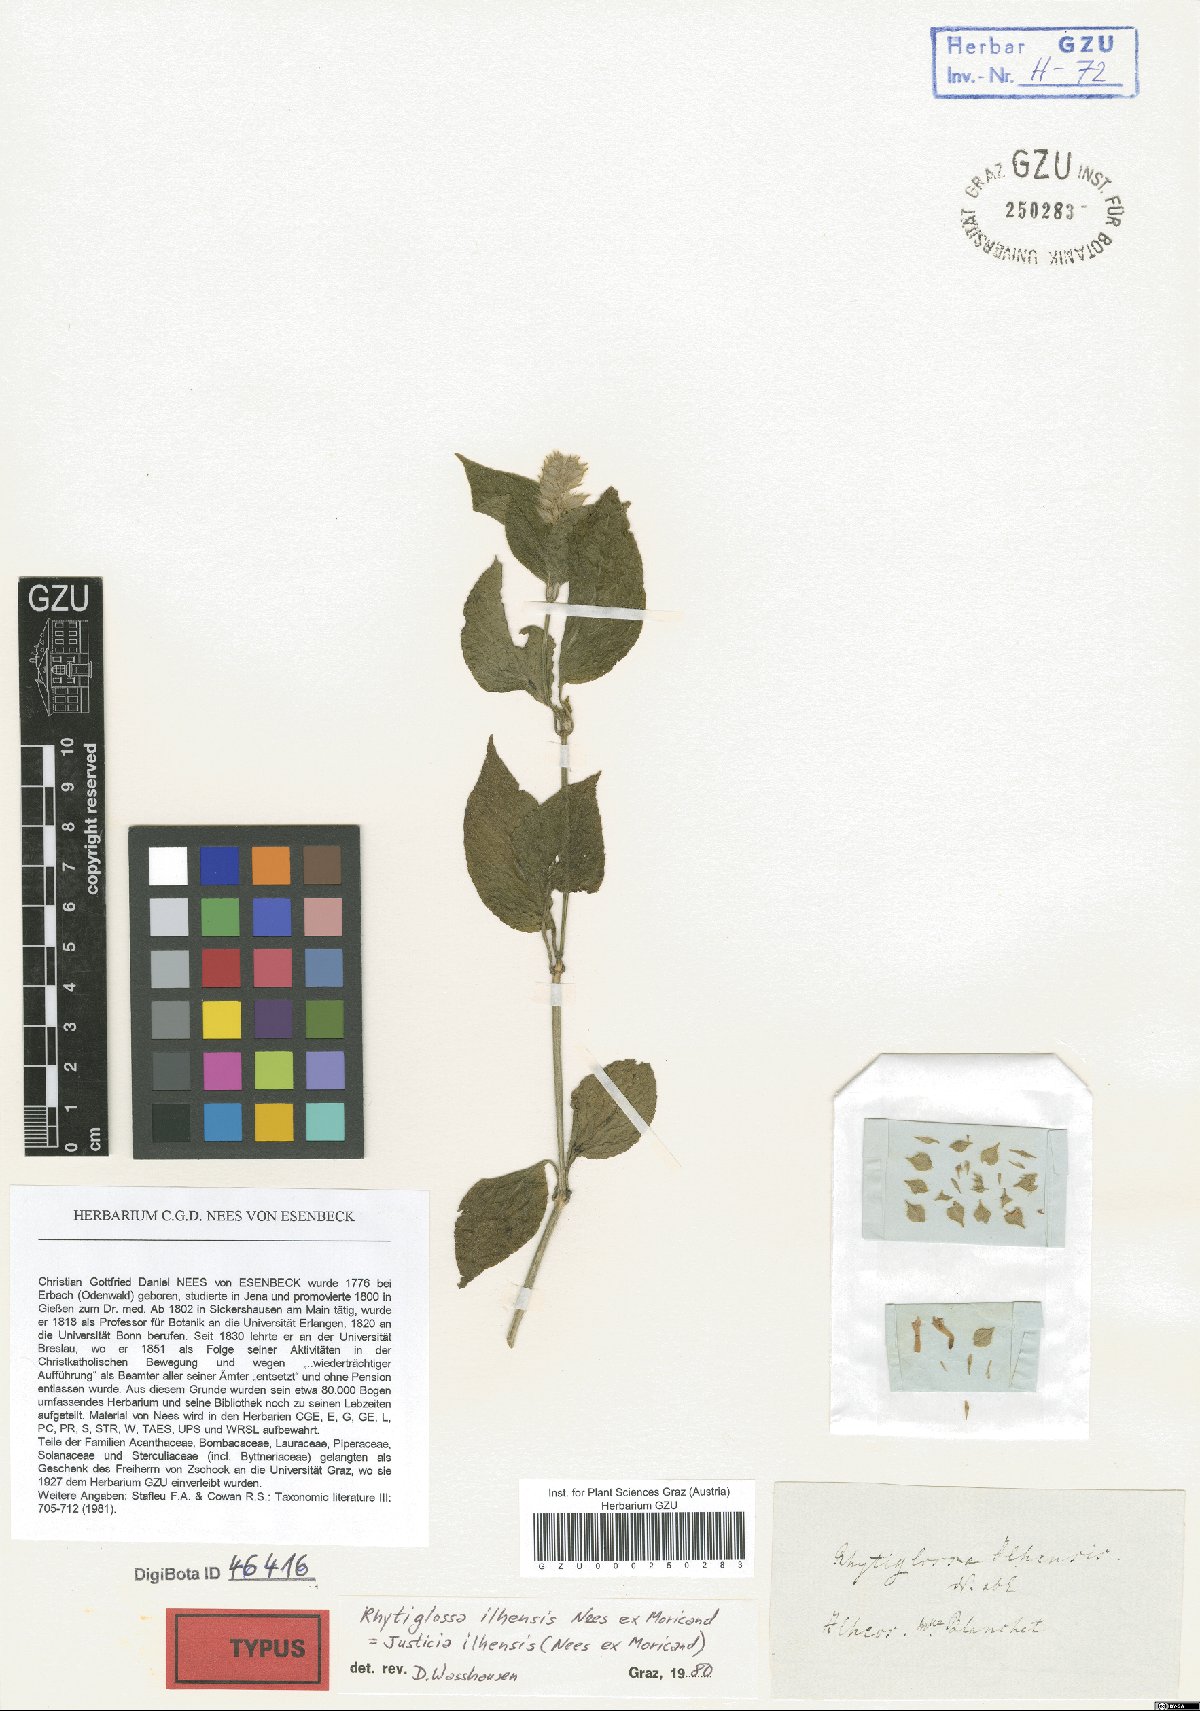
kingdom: Plantae
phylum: Tracheophyta
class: Magnoliopsida
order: Lamiales
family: Acanthaceae
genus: Justicia
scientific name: Justicia ilhensis
